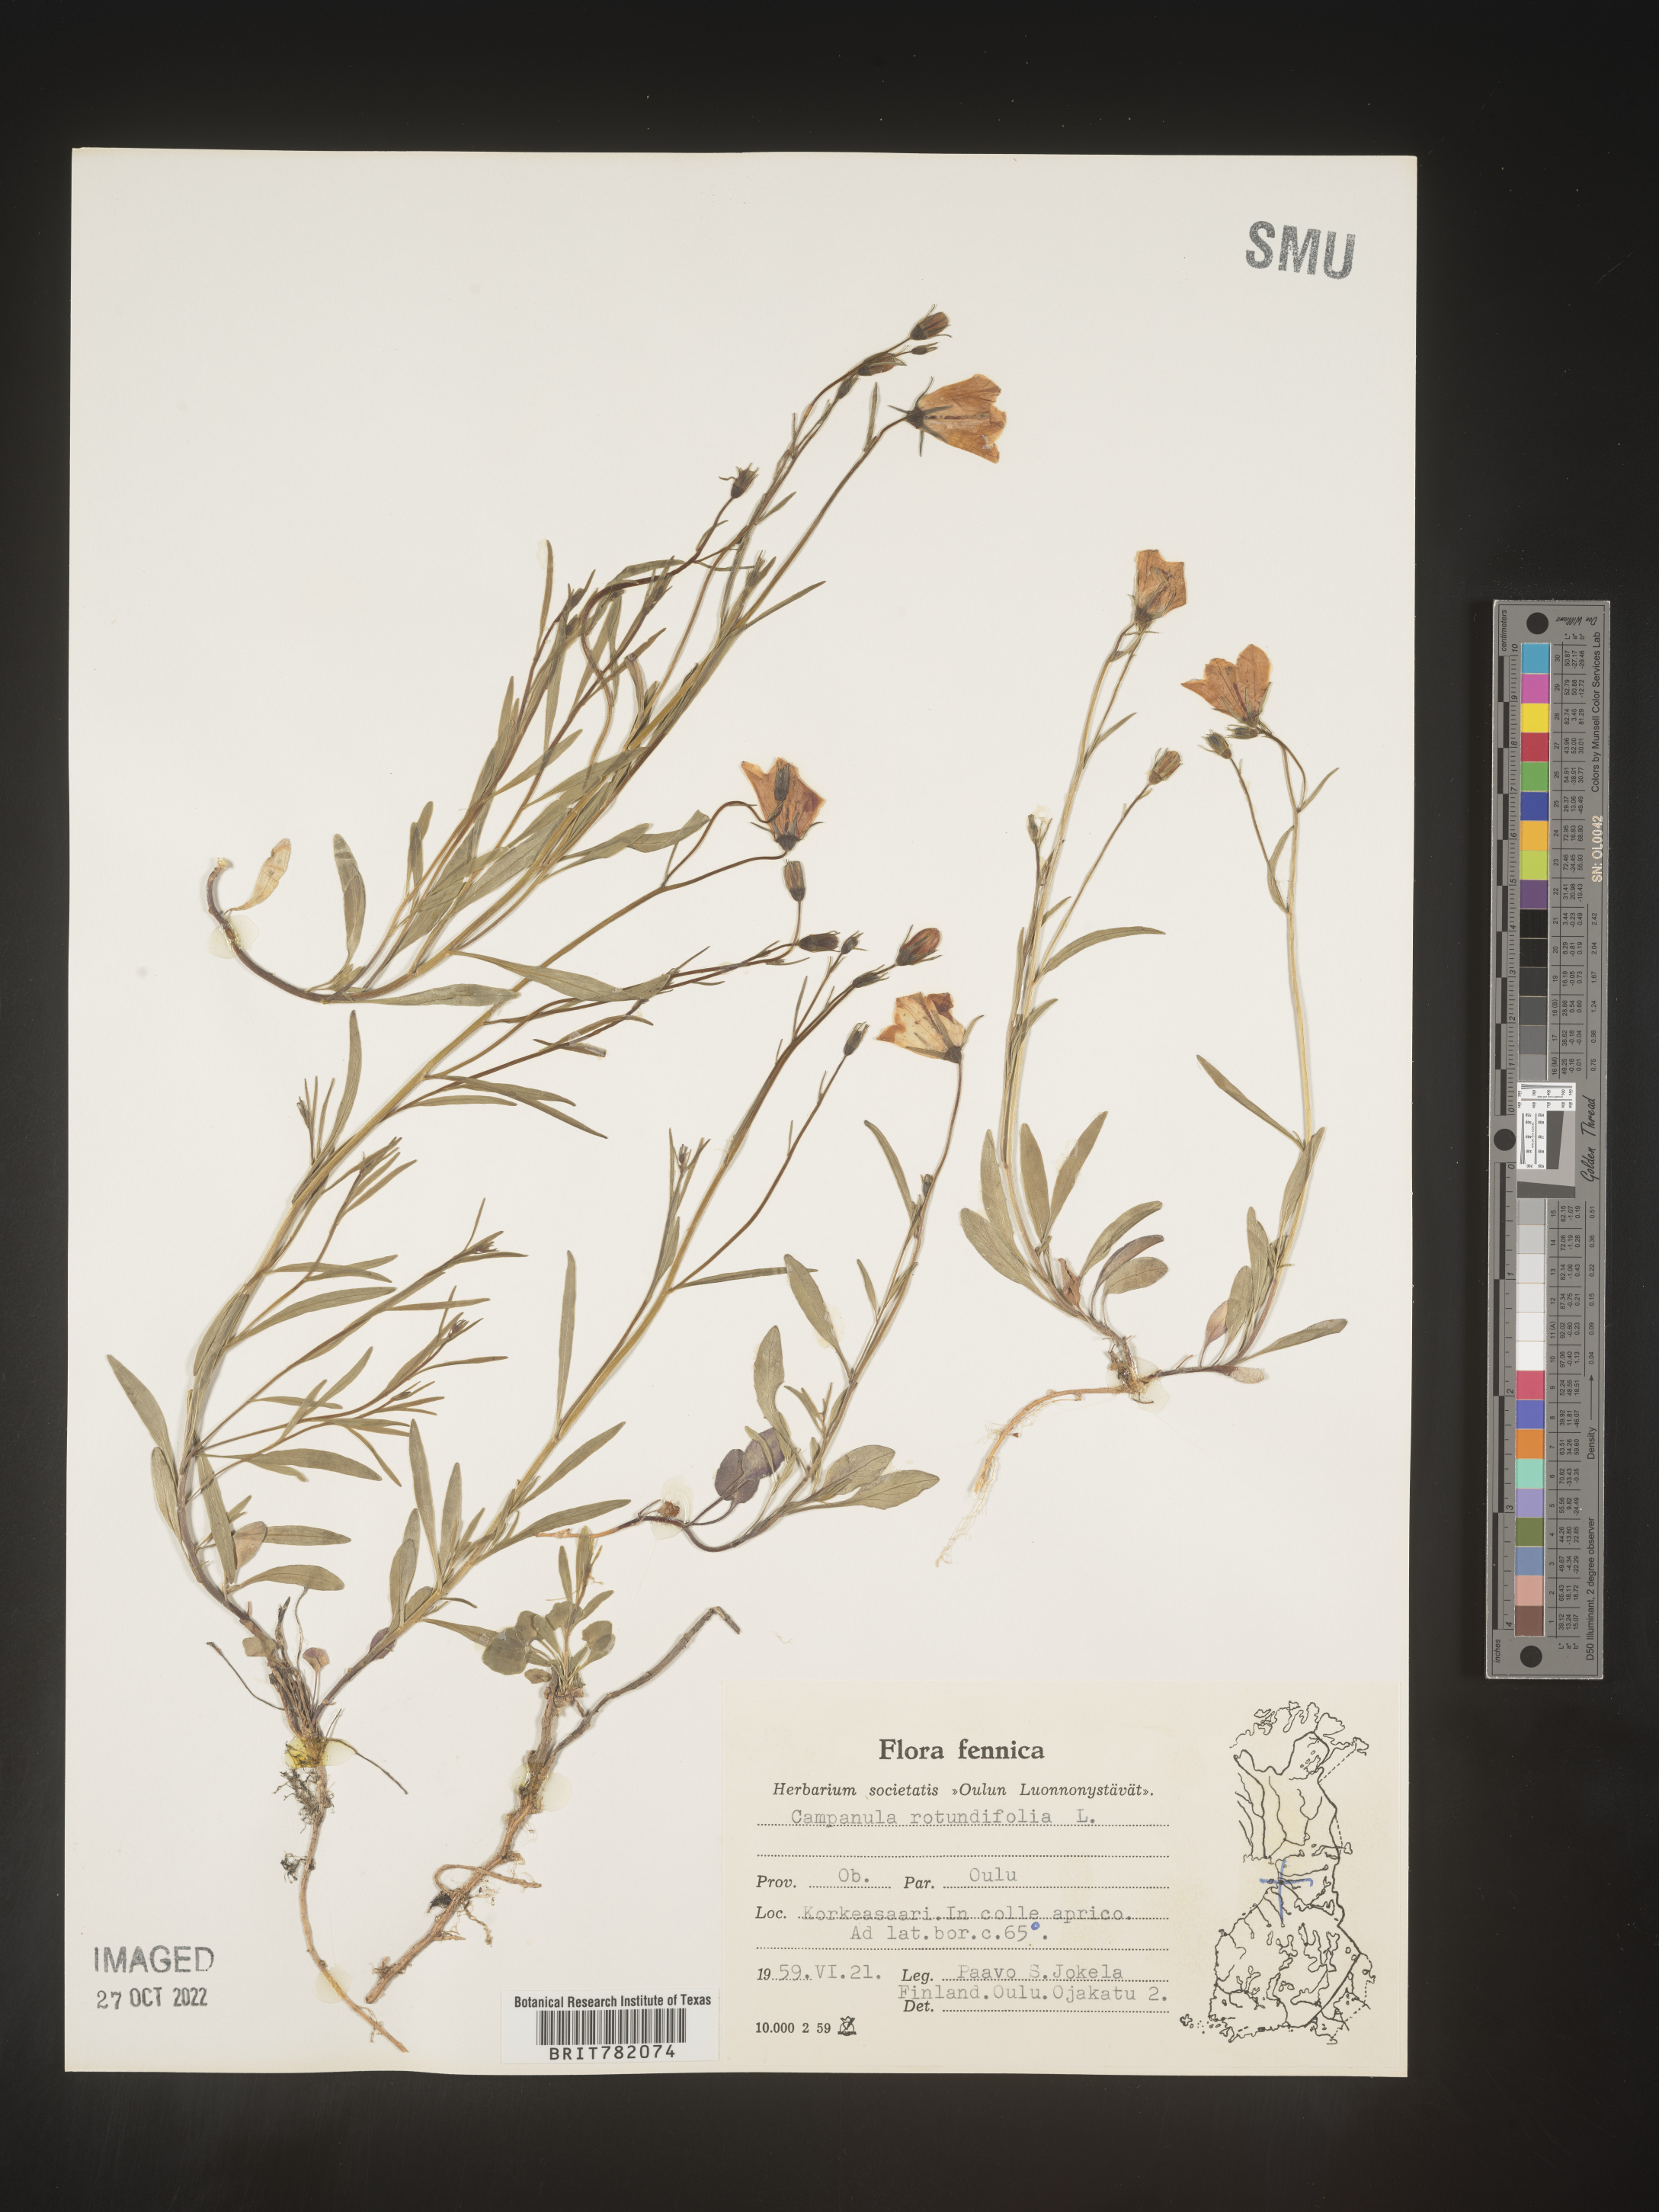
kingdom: Plantae
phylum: Tracheophyta
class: Magnoliopsida
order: Asterales
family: Campanulaceae
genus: Campanula
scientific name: Campanula rotundifolia
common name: Harebell
